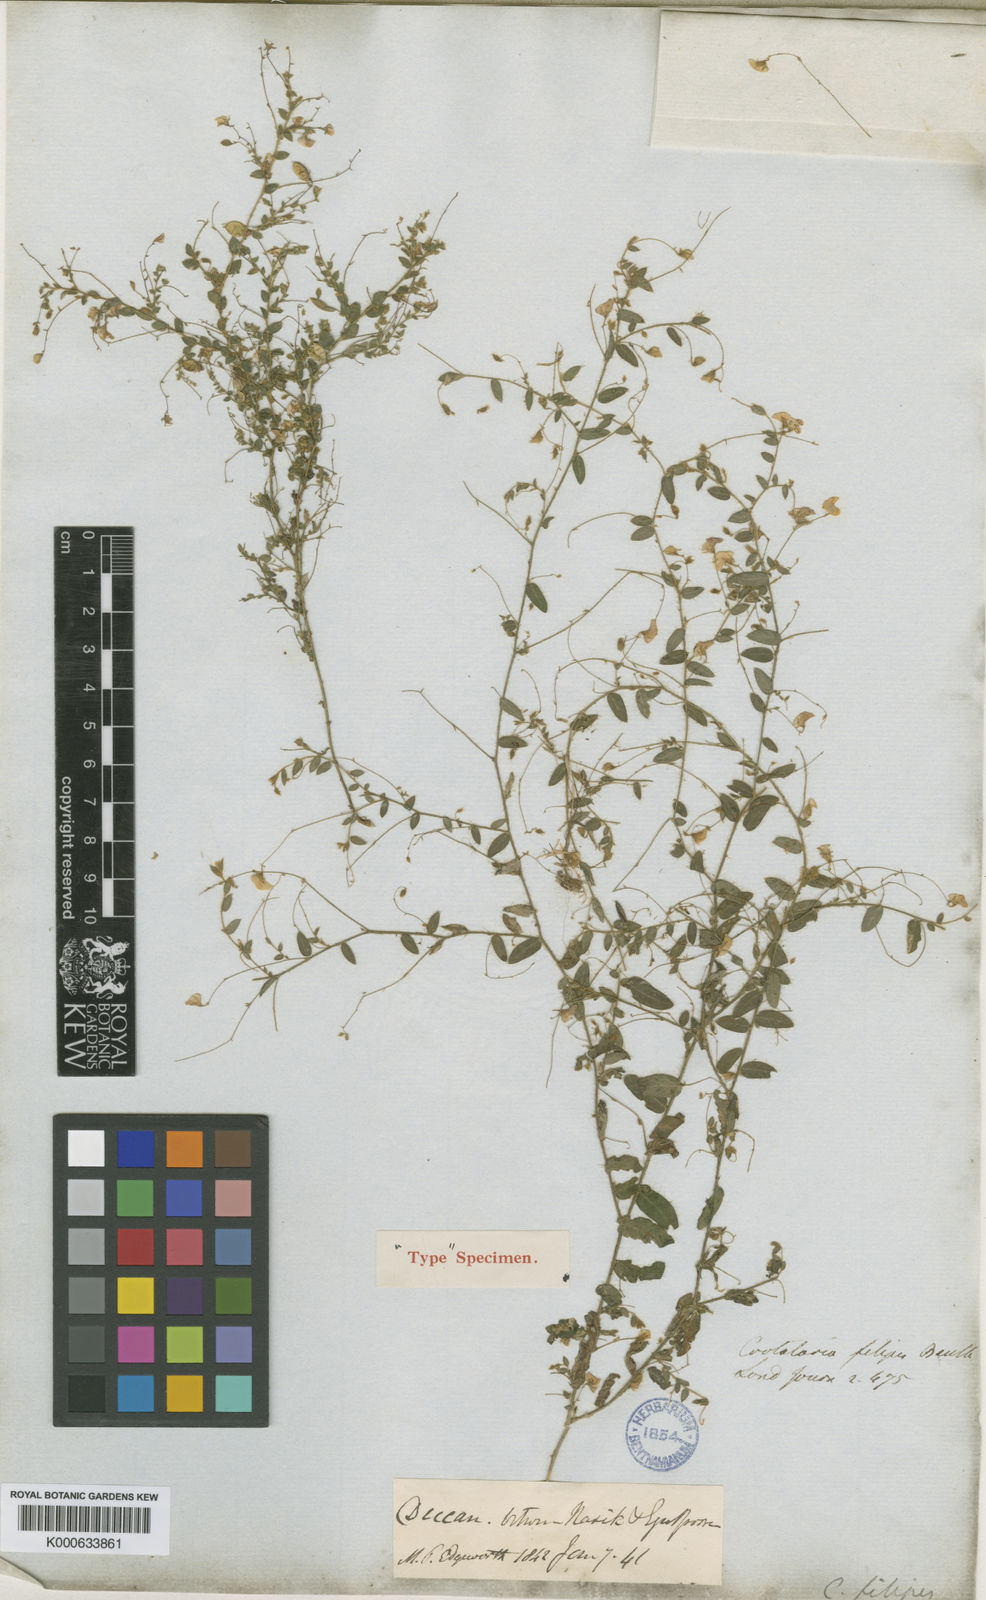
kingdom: Plantae
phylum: Tracheophyta
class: Magnoliopsida
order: Fabales
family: Fabaceae
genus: Crotalaria
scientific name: Crotalaria filipes
